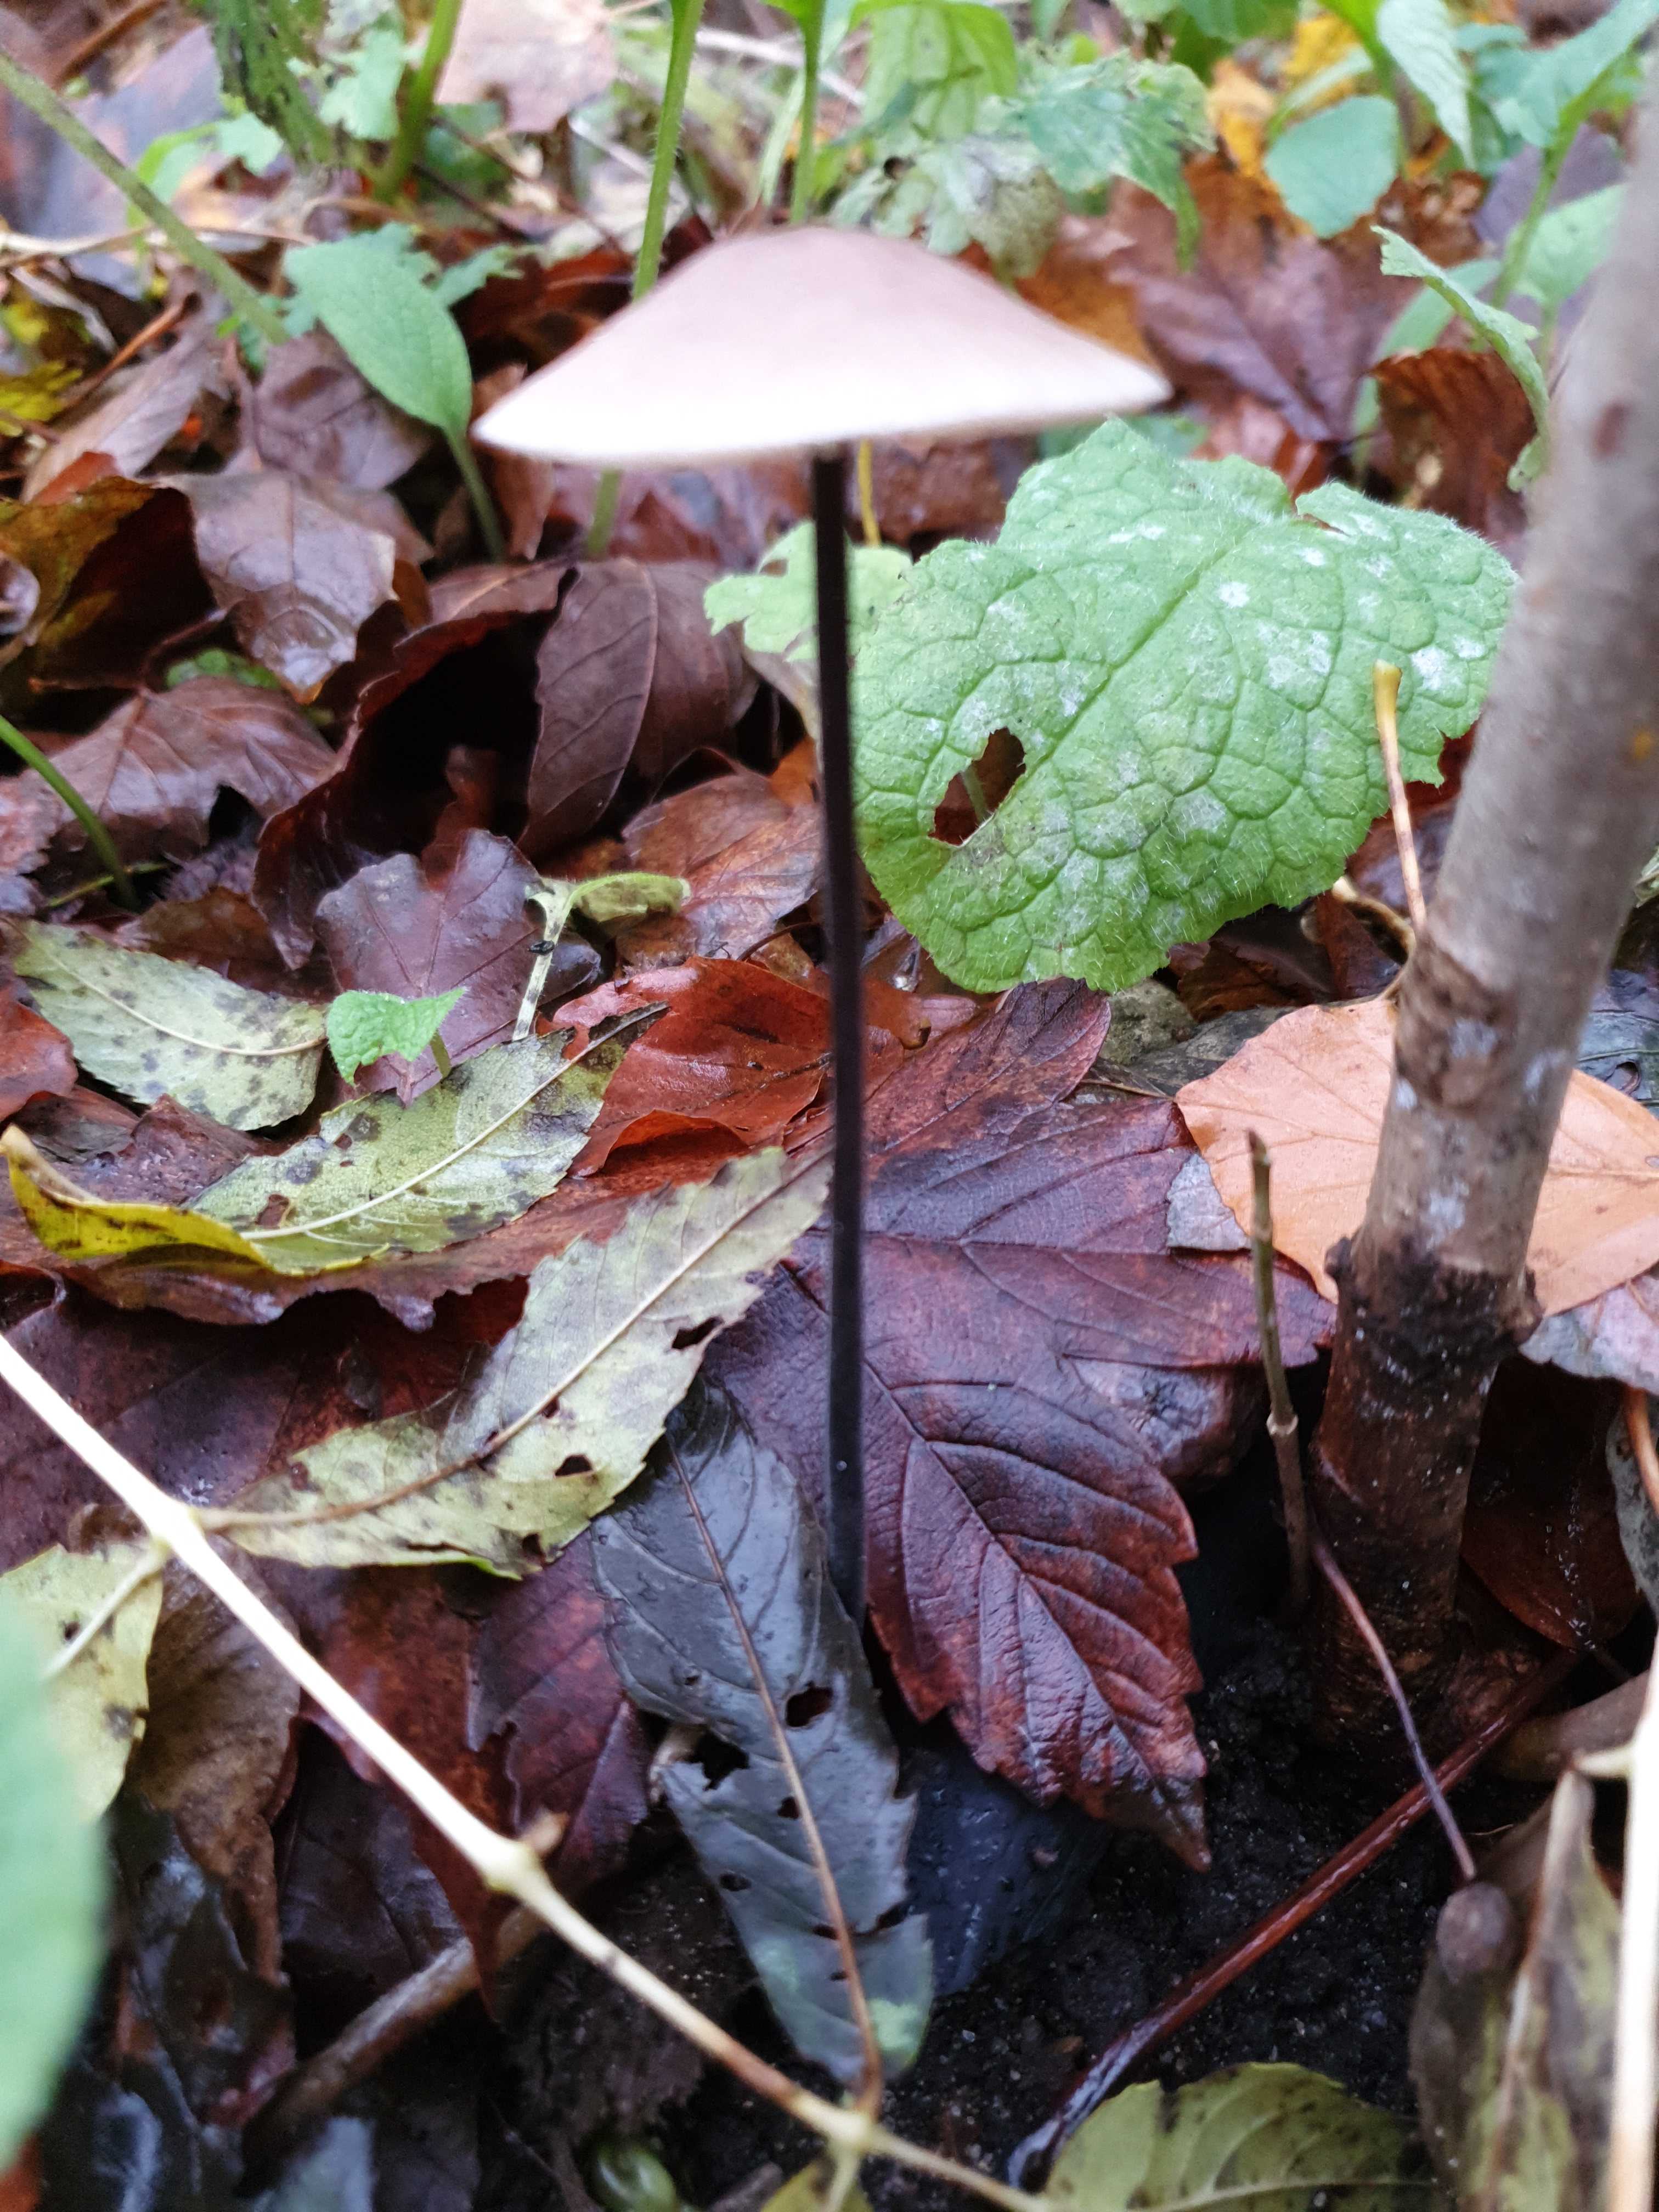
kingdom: Fungi
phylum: Basidiomycota
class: Agaricomycetes
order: Agaricales
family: Omphalotaceae
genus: Mycetinis
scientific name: Mycetinis alliaceus
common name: stor løghat
